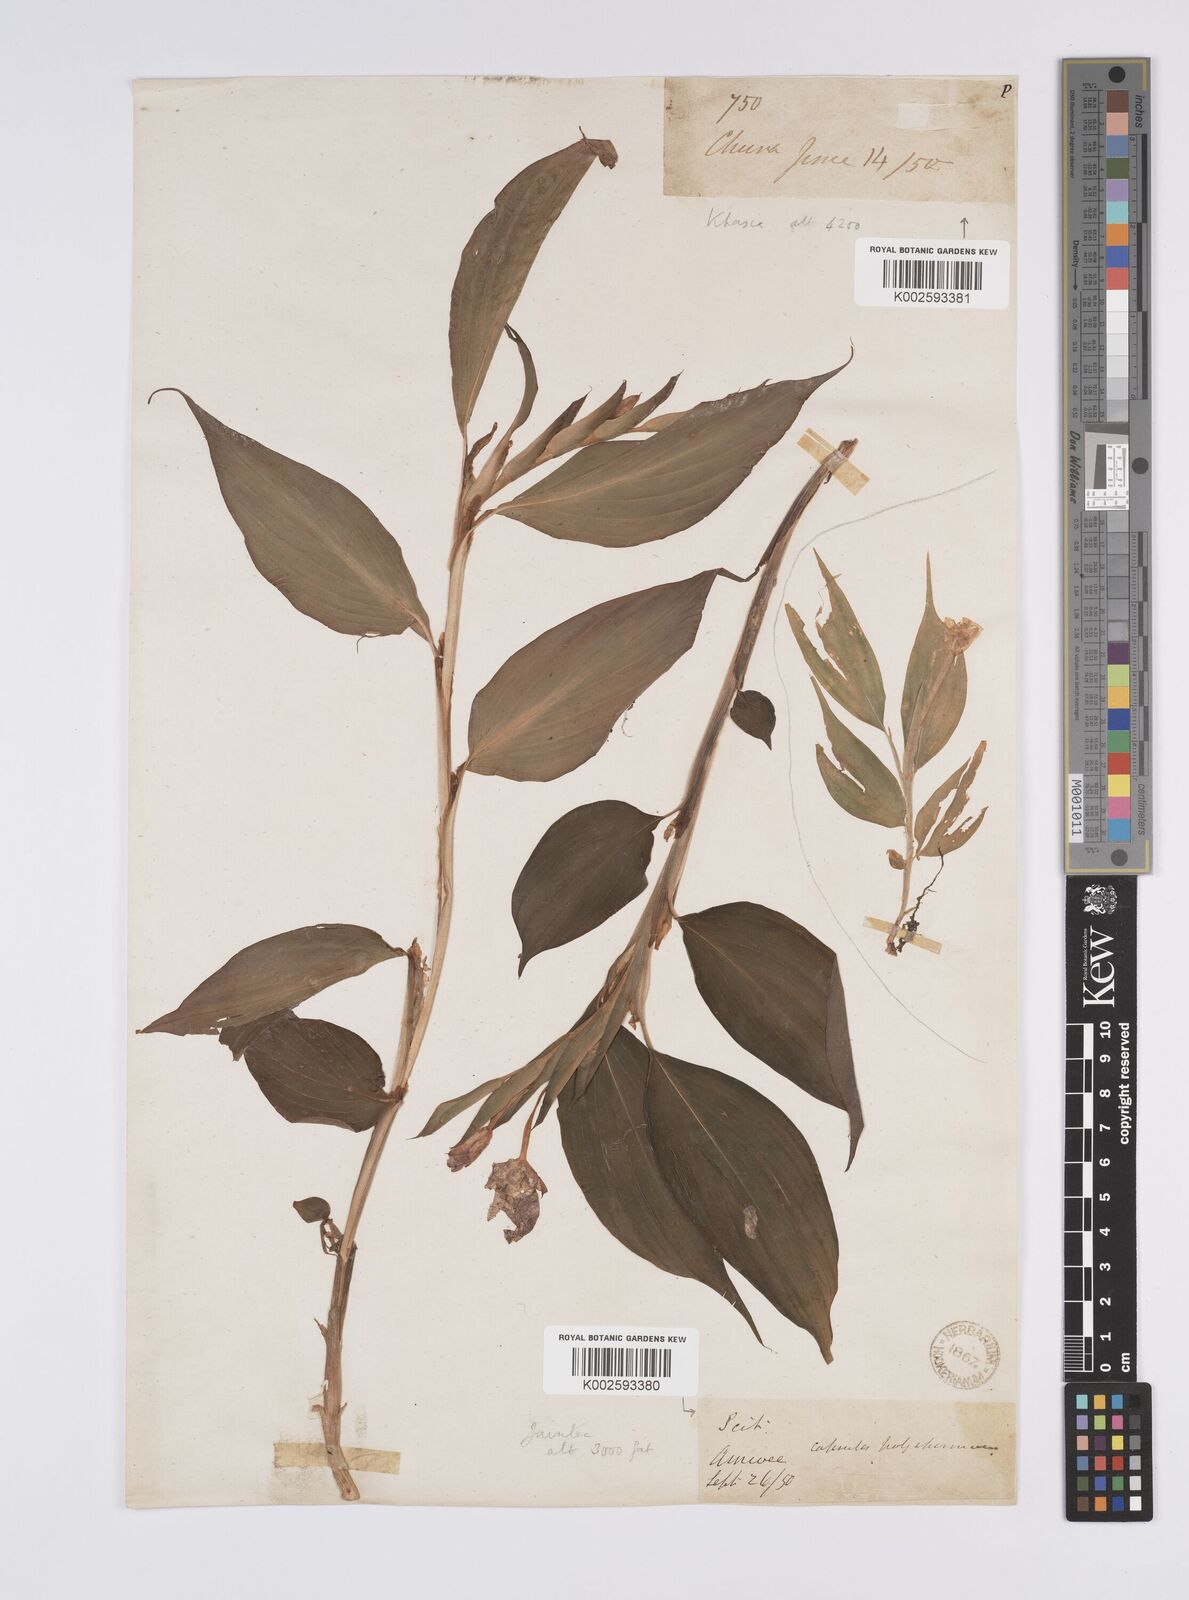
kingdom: Plantae
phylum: Tracheophyta
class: Liliopsida
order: Zingiberales
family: Zingiberaceae
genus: Caulokaempferia
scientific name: Caulokaempferia secunda
